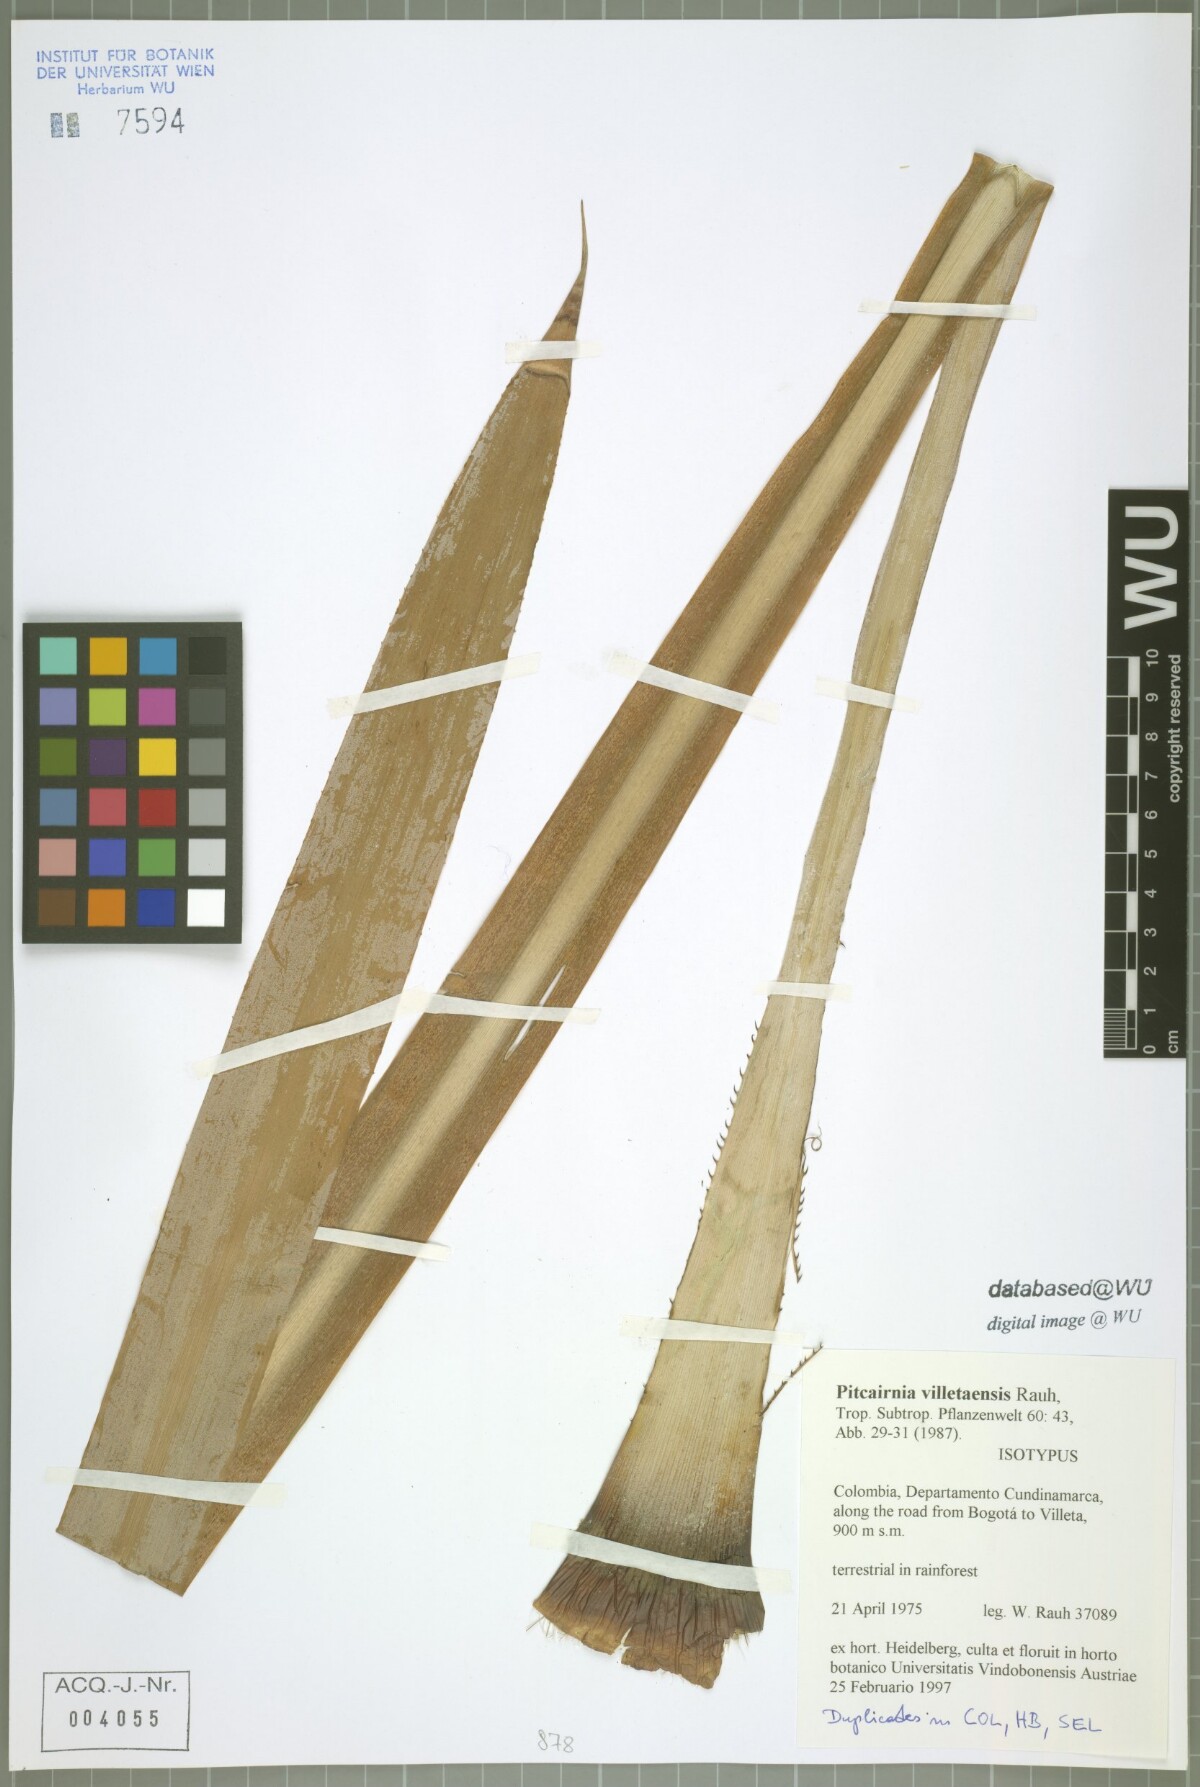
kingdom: Plantae
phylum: Tracheophyta
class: Liliopsida
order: Poales
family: Bromeliaceae
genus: Pitcairnia
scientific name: Pitcairnia villetaensis
